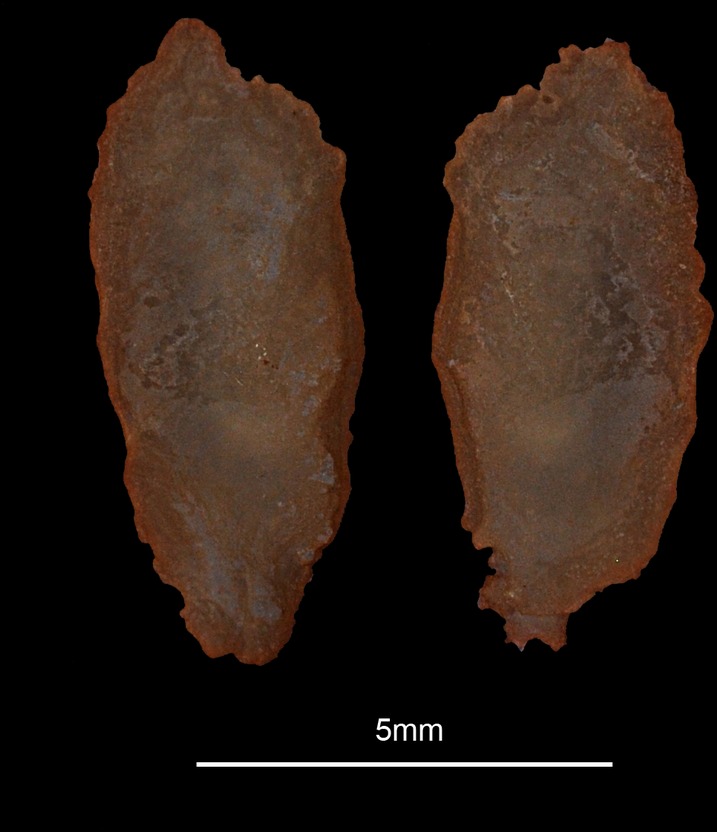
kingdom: Animalia
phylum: Chordata
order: Mugiliformes
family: Mugilidae
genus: Chelon
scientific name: Chelon auratus
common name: Golden grey mullet
